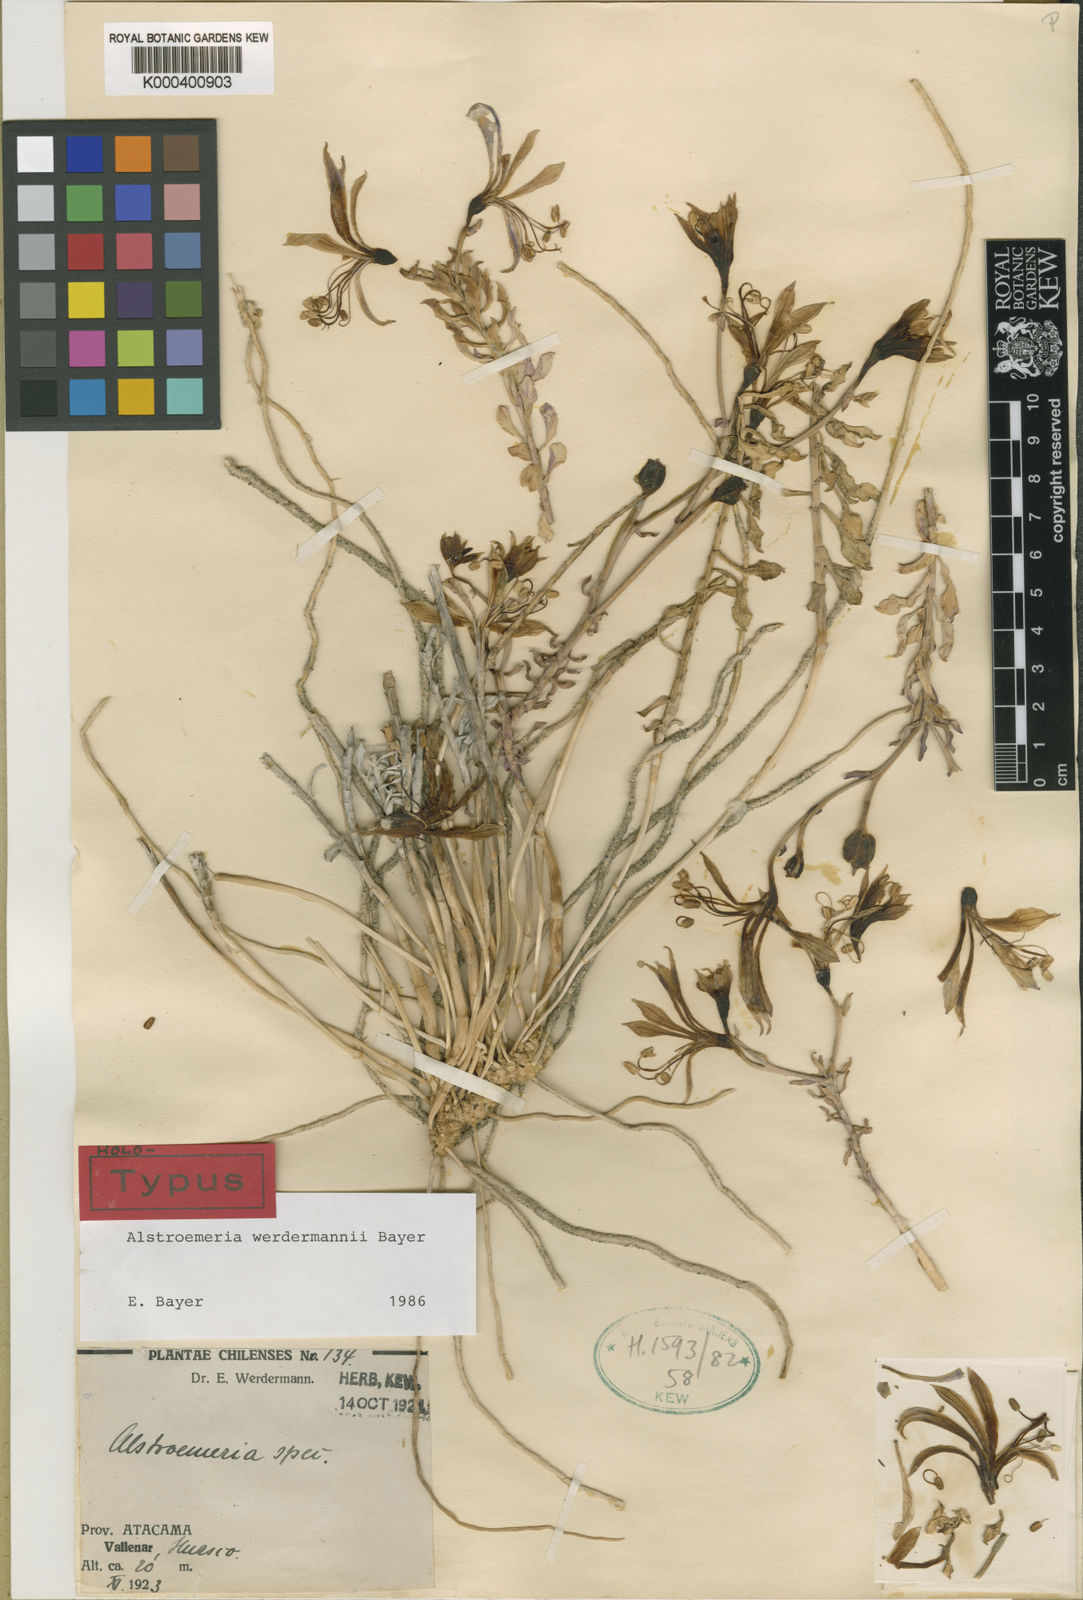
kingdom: Plantae
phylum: Tracheophyta
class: Liliopsida
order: Liliales
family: Alstroemeriaceae
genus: Alstroemeria
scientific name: Alstroemeria werdermannii
